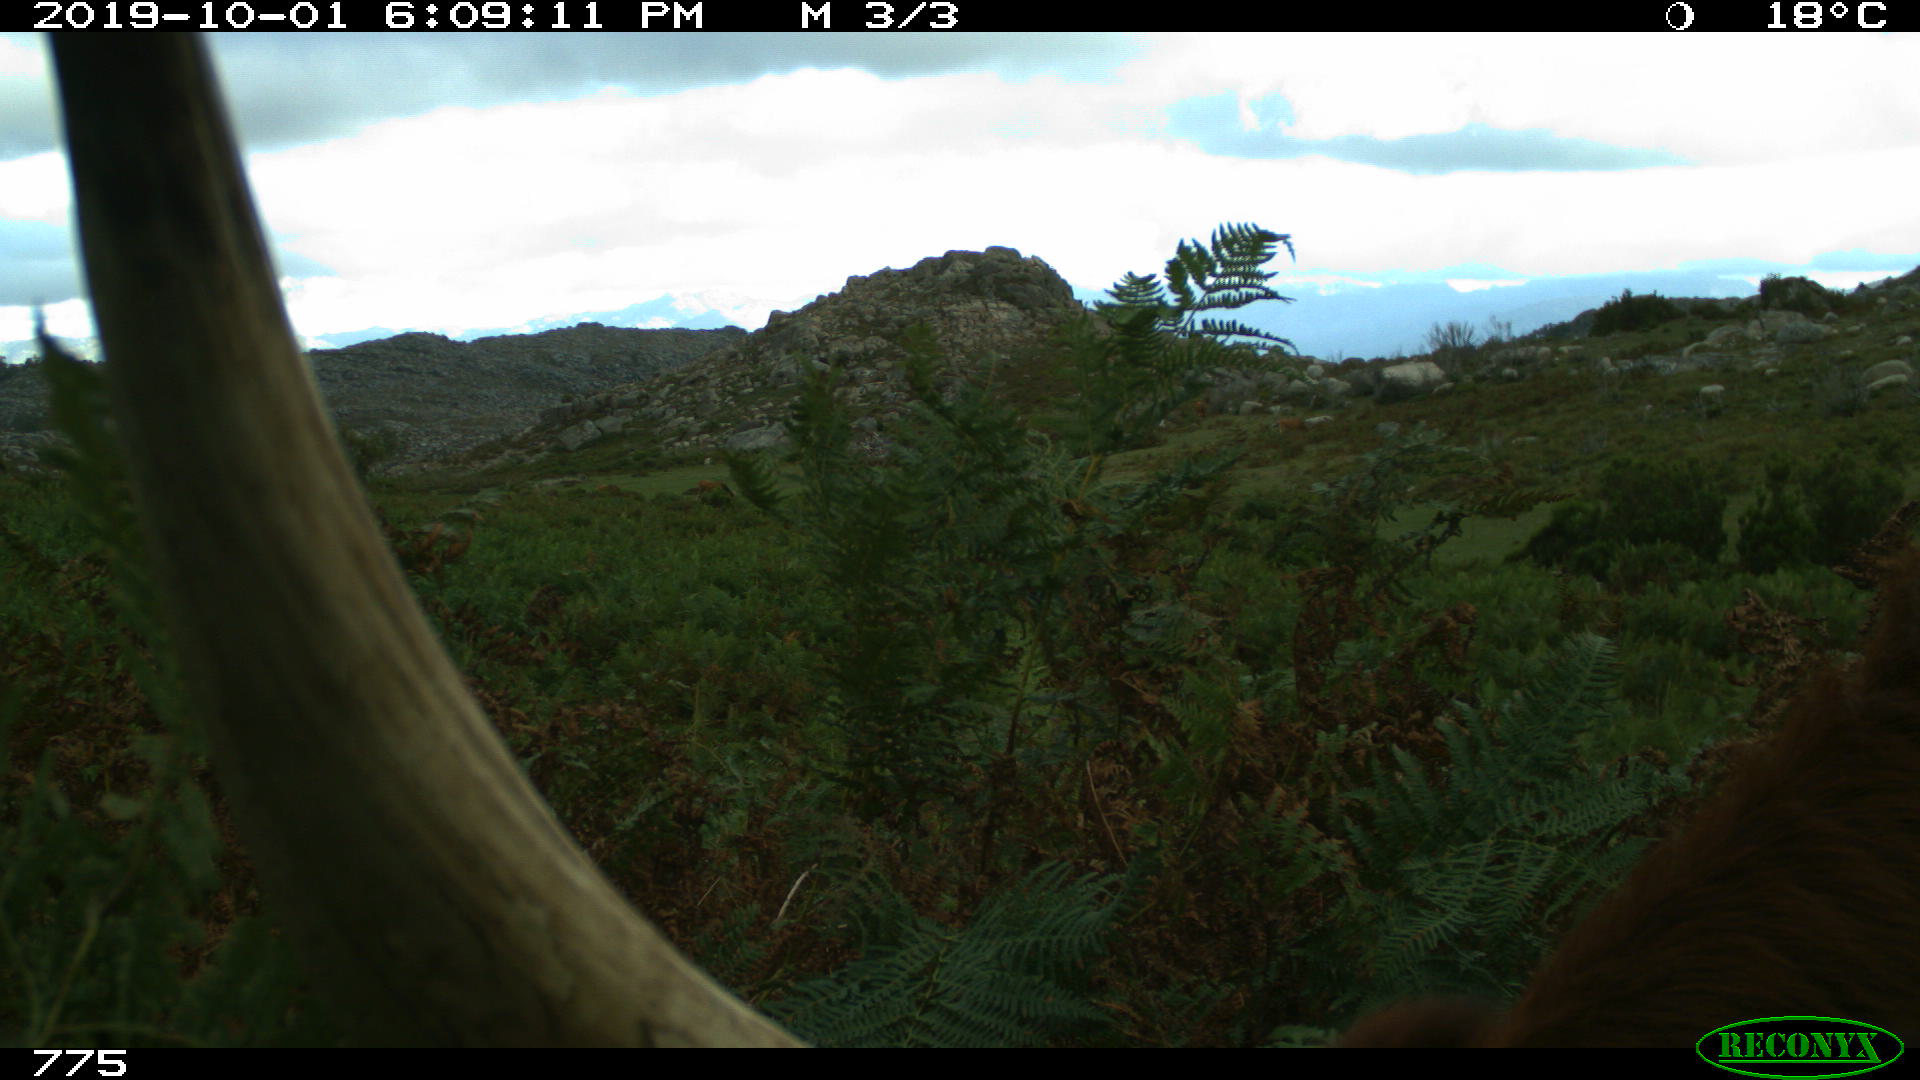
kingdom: Animalia
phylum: Chordata
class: Mammalia
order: Artiodactyla
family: Bovidae
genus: Bos
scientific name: Bos taurus
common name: Domesticated cattle
